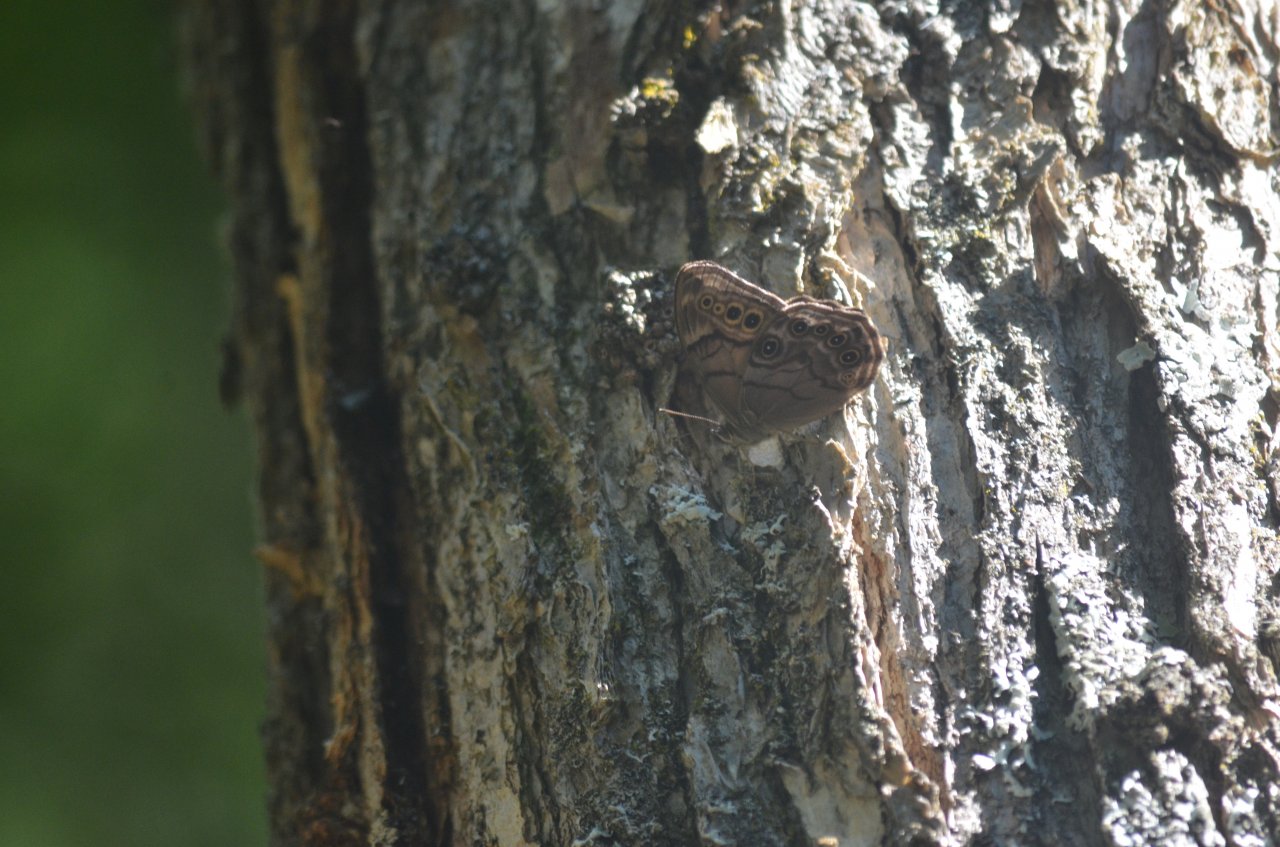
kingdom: Animalia
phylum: Arthropoda
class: Insecta
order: Lepidoptera
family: Nymphalidae
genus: Lethe
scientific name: Lethe anthedon
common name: Northern Pearly-Eye
